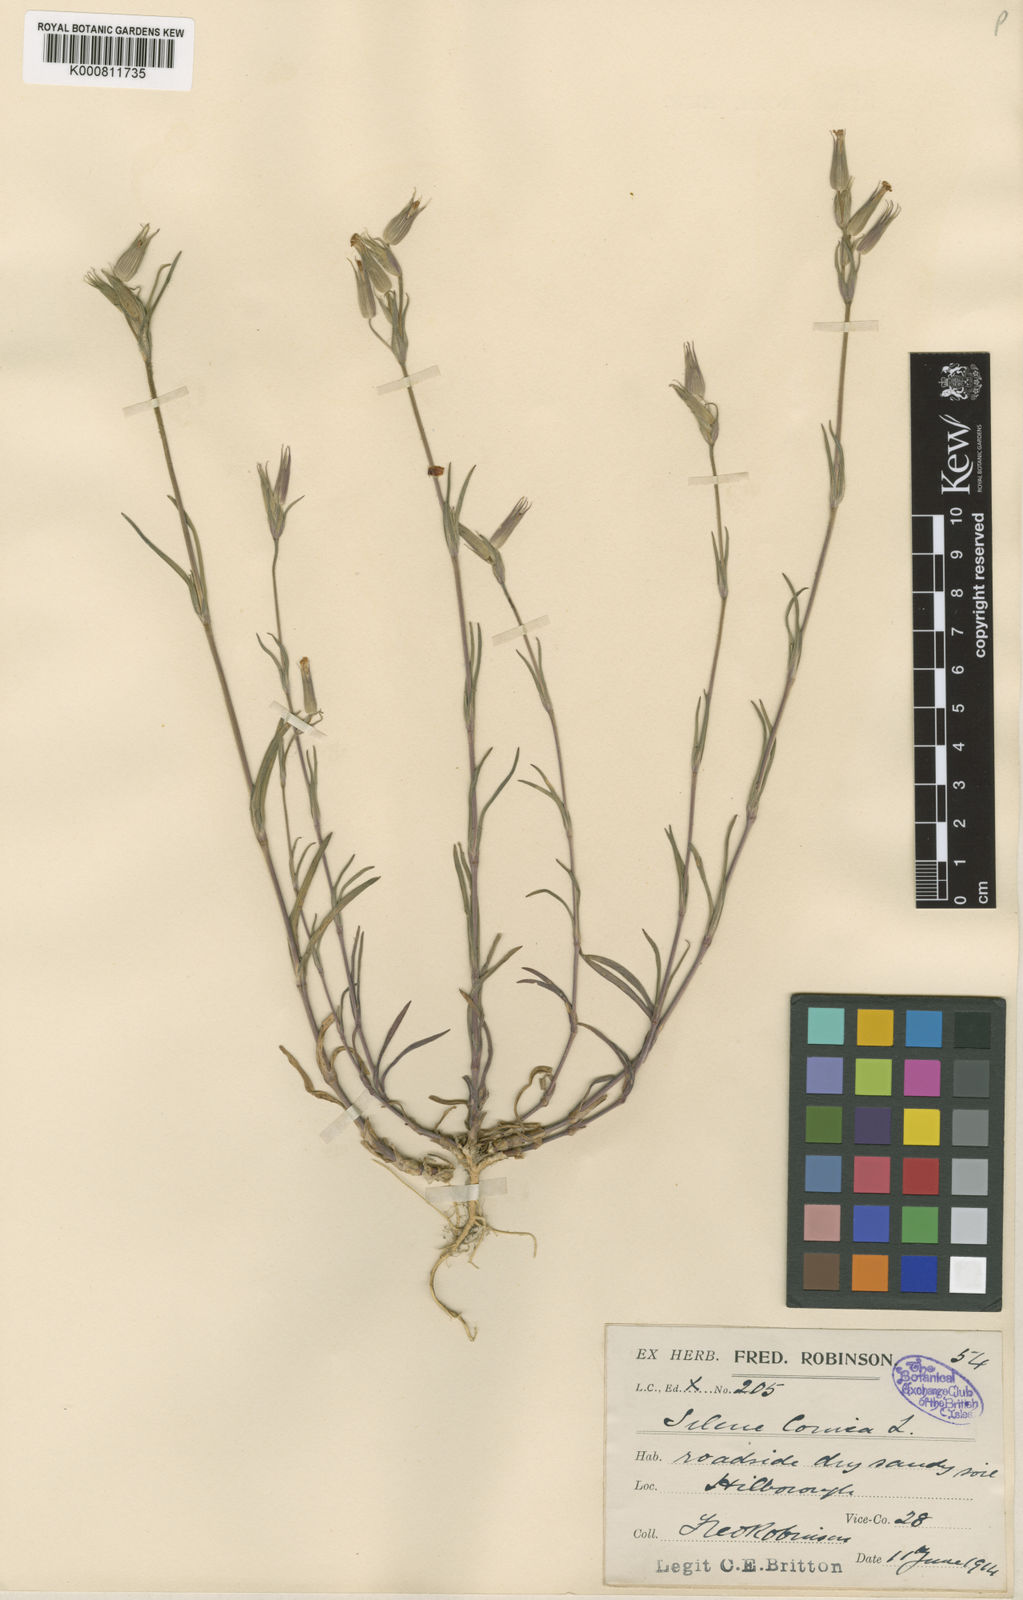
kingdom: Plantae
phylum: Tracheophyta
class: Magnoliopsida
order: Caryophyllales
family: Caryophyllaceae
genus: Silene
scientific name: Silene conica
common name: Sand catchfly
